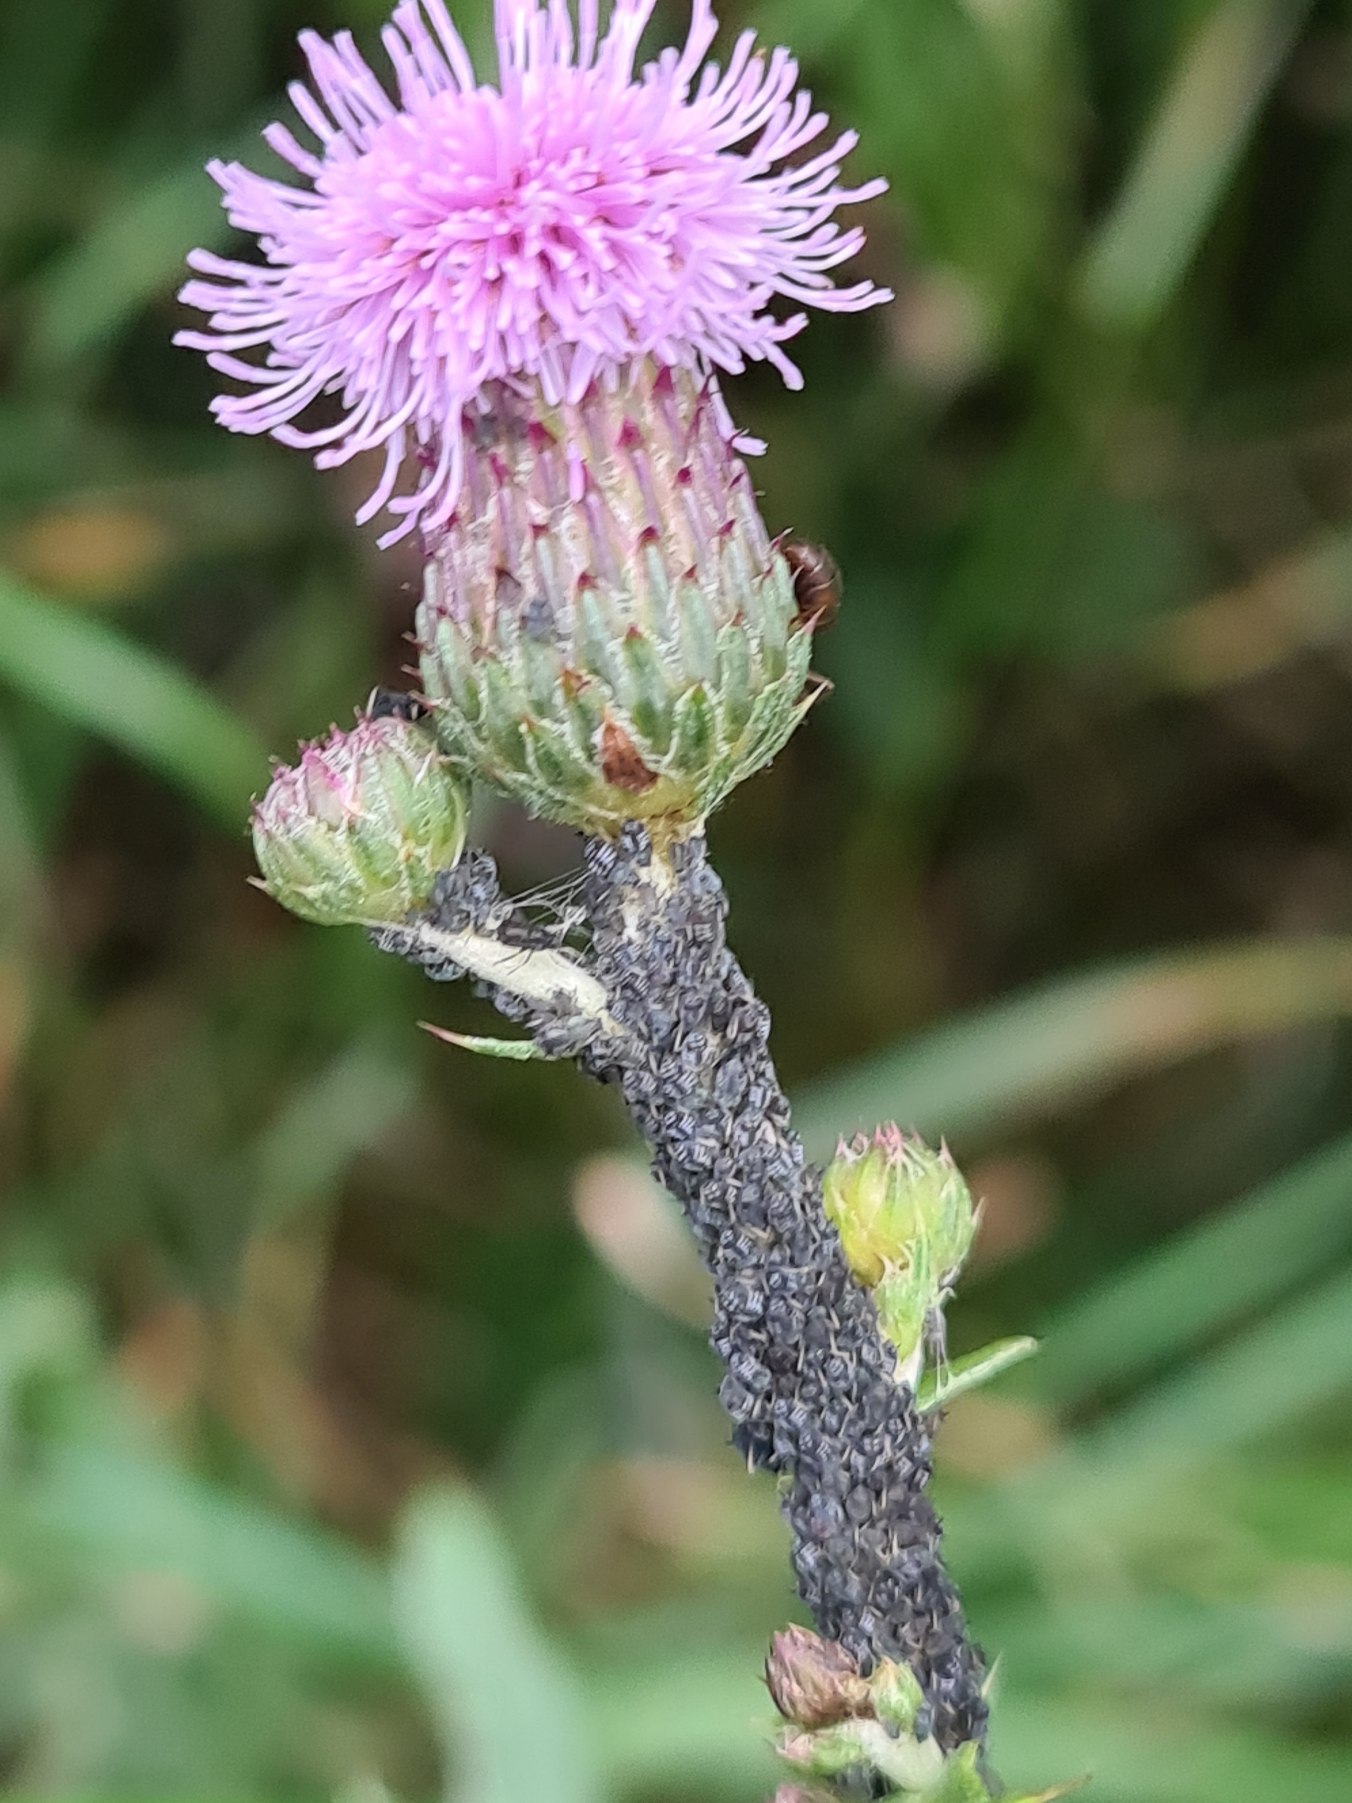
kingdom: Plantae
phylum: Tracheophyta
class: Magnoliopsida
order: Asterales
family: Asteraceae
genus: Cirsium
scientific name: Cirsium arvense
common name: Ager-tidsel
